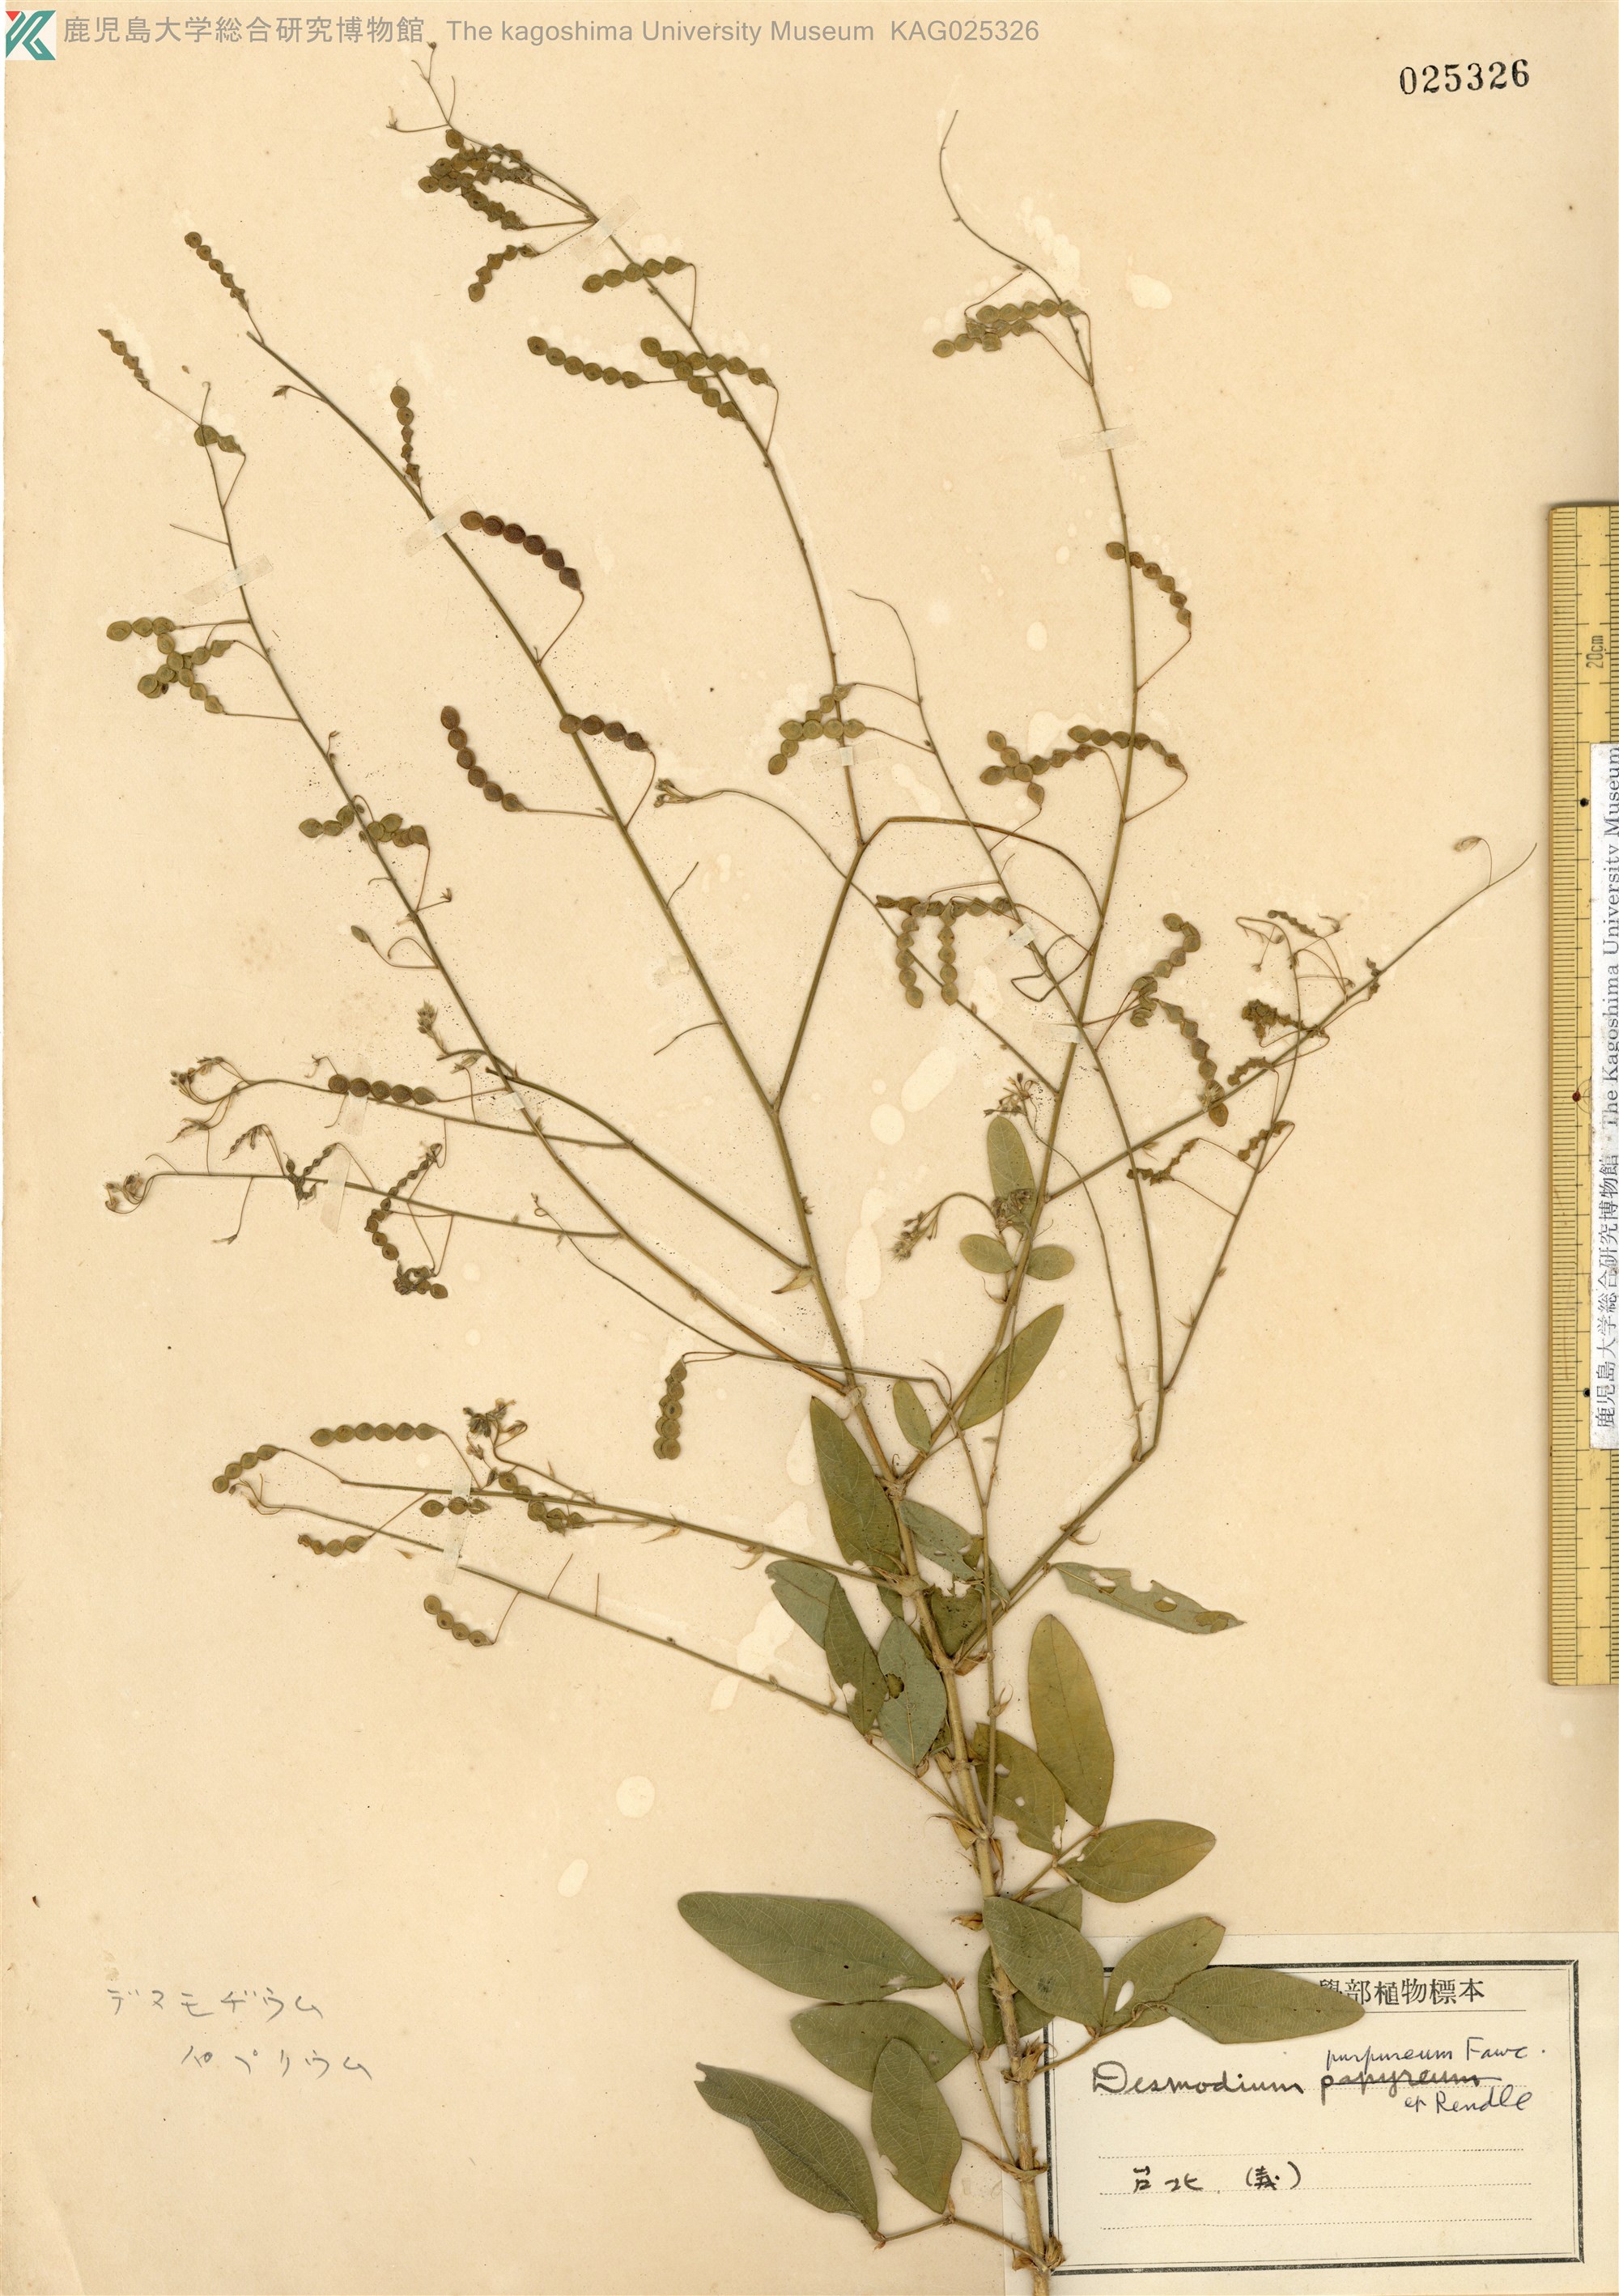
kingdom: Plantae
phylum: Tracheophyta
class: Magnoliopsida
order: Fabales
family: Fabaceae
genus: Desmodium
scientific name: Desmodium tortuosum
